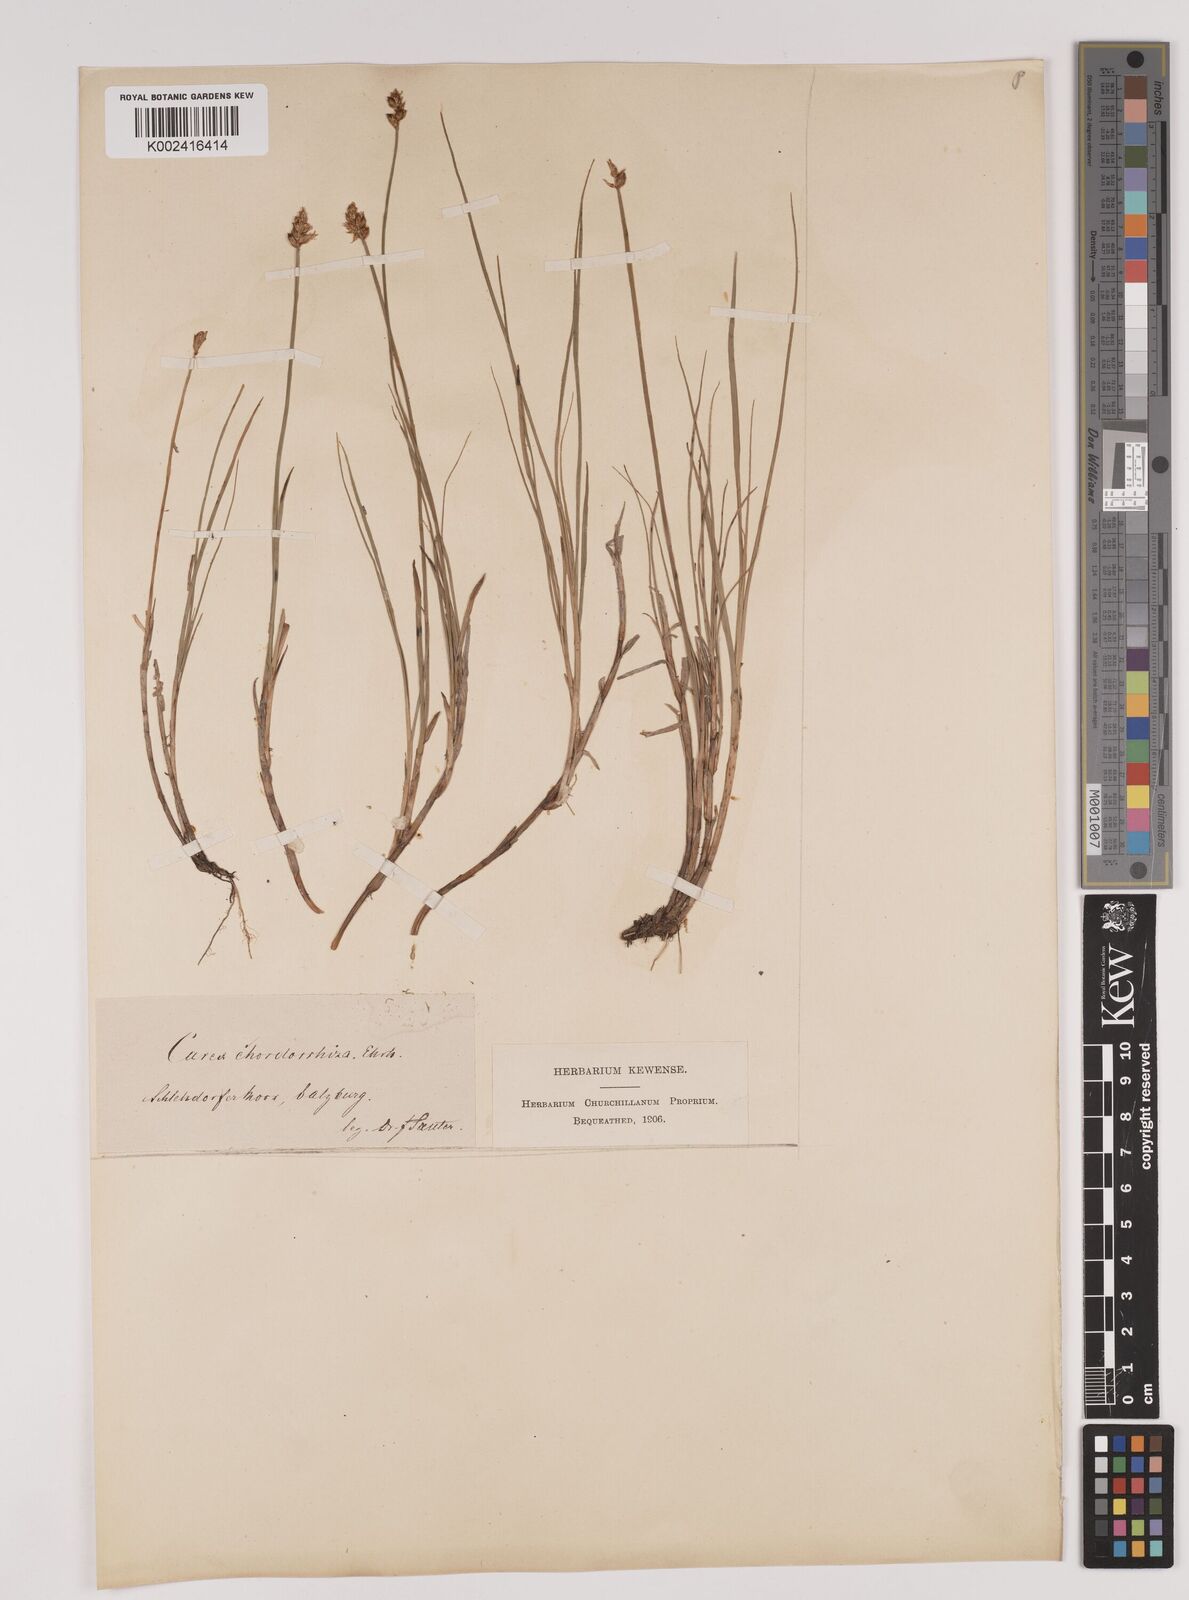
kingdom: Plantae
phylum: Tracheophyta
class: Liliopsida
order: Poales
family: Cyperaceae
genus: Carex
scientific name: Carex chordorrhiza
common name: String sedge
